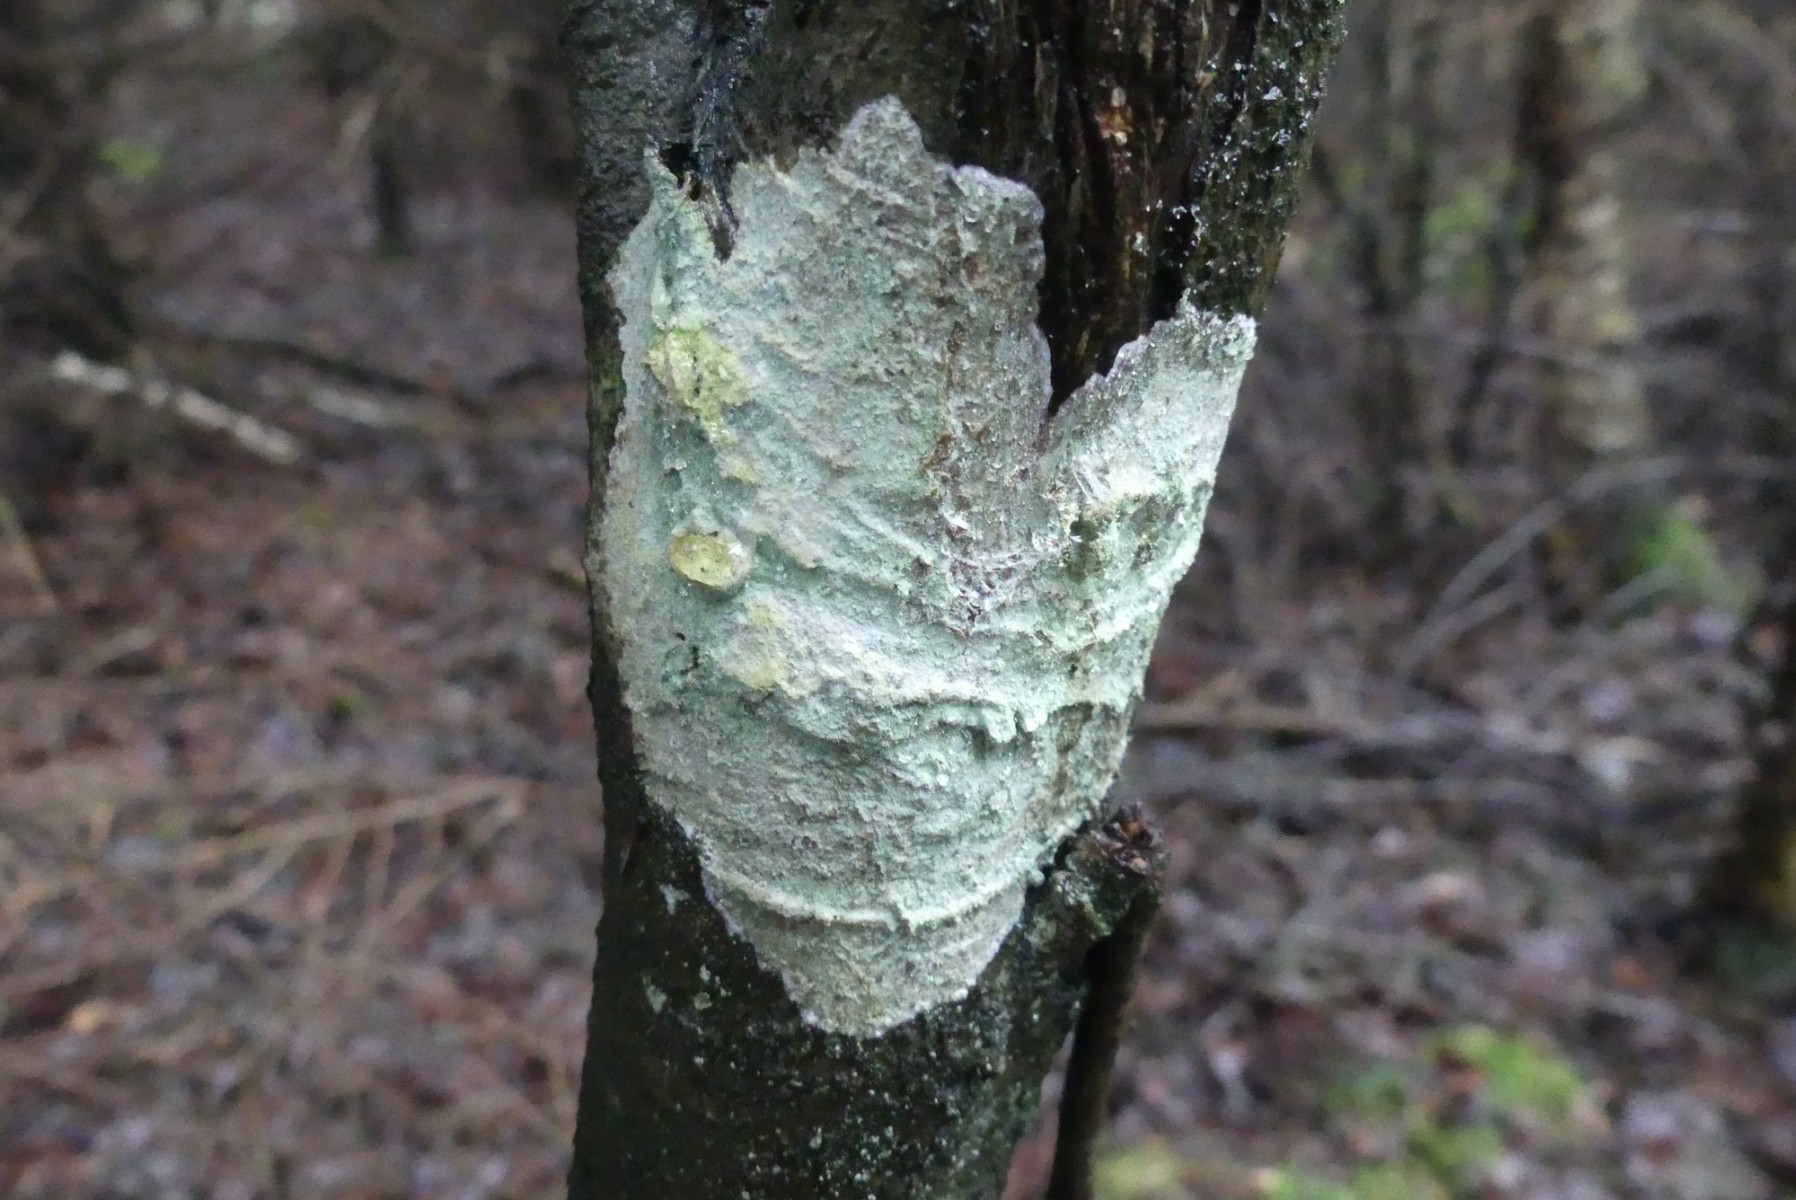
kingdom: Fungi
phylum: Ascomycota
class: Lecanoromycetes
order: Ostropales
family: Phlyctidaceae
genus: Phlyctis
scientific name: Phlyctis argena
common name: almindelig sølvlav
